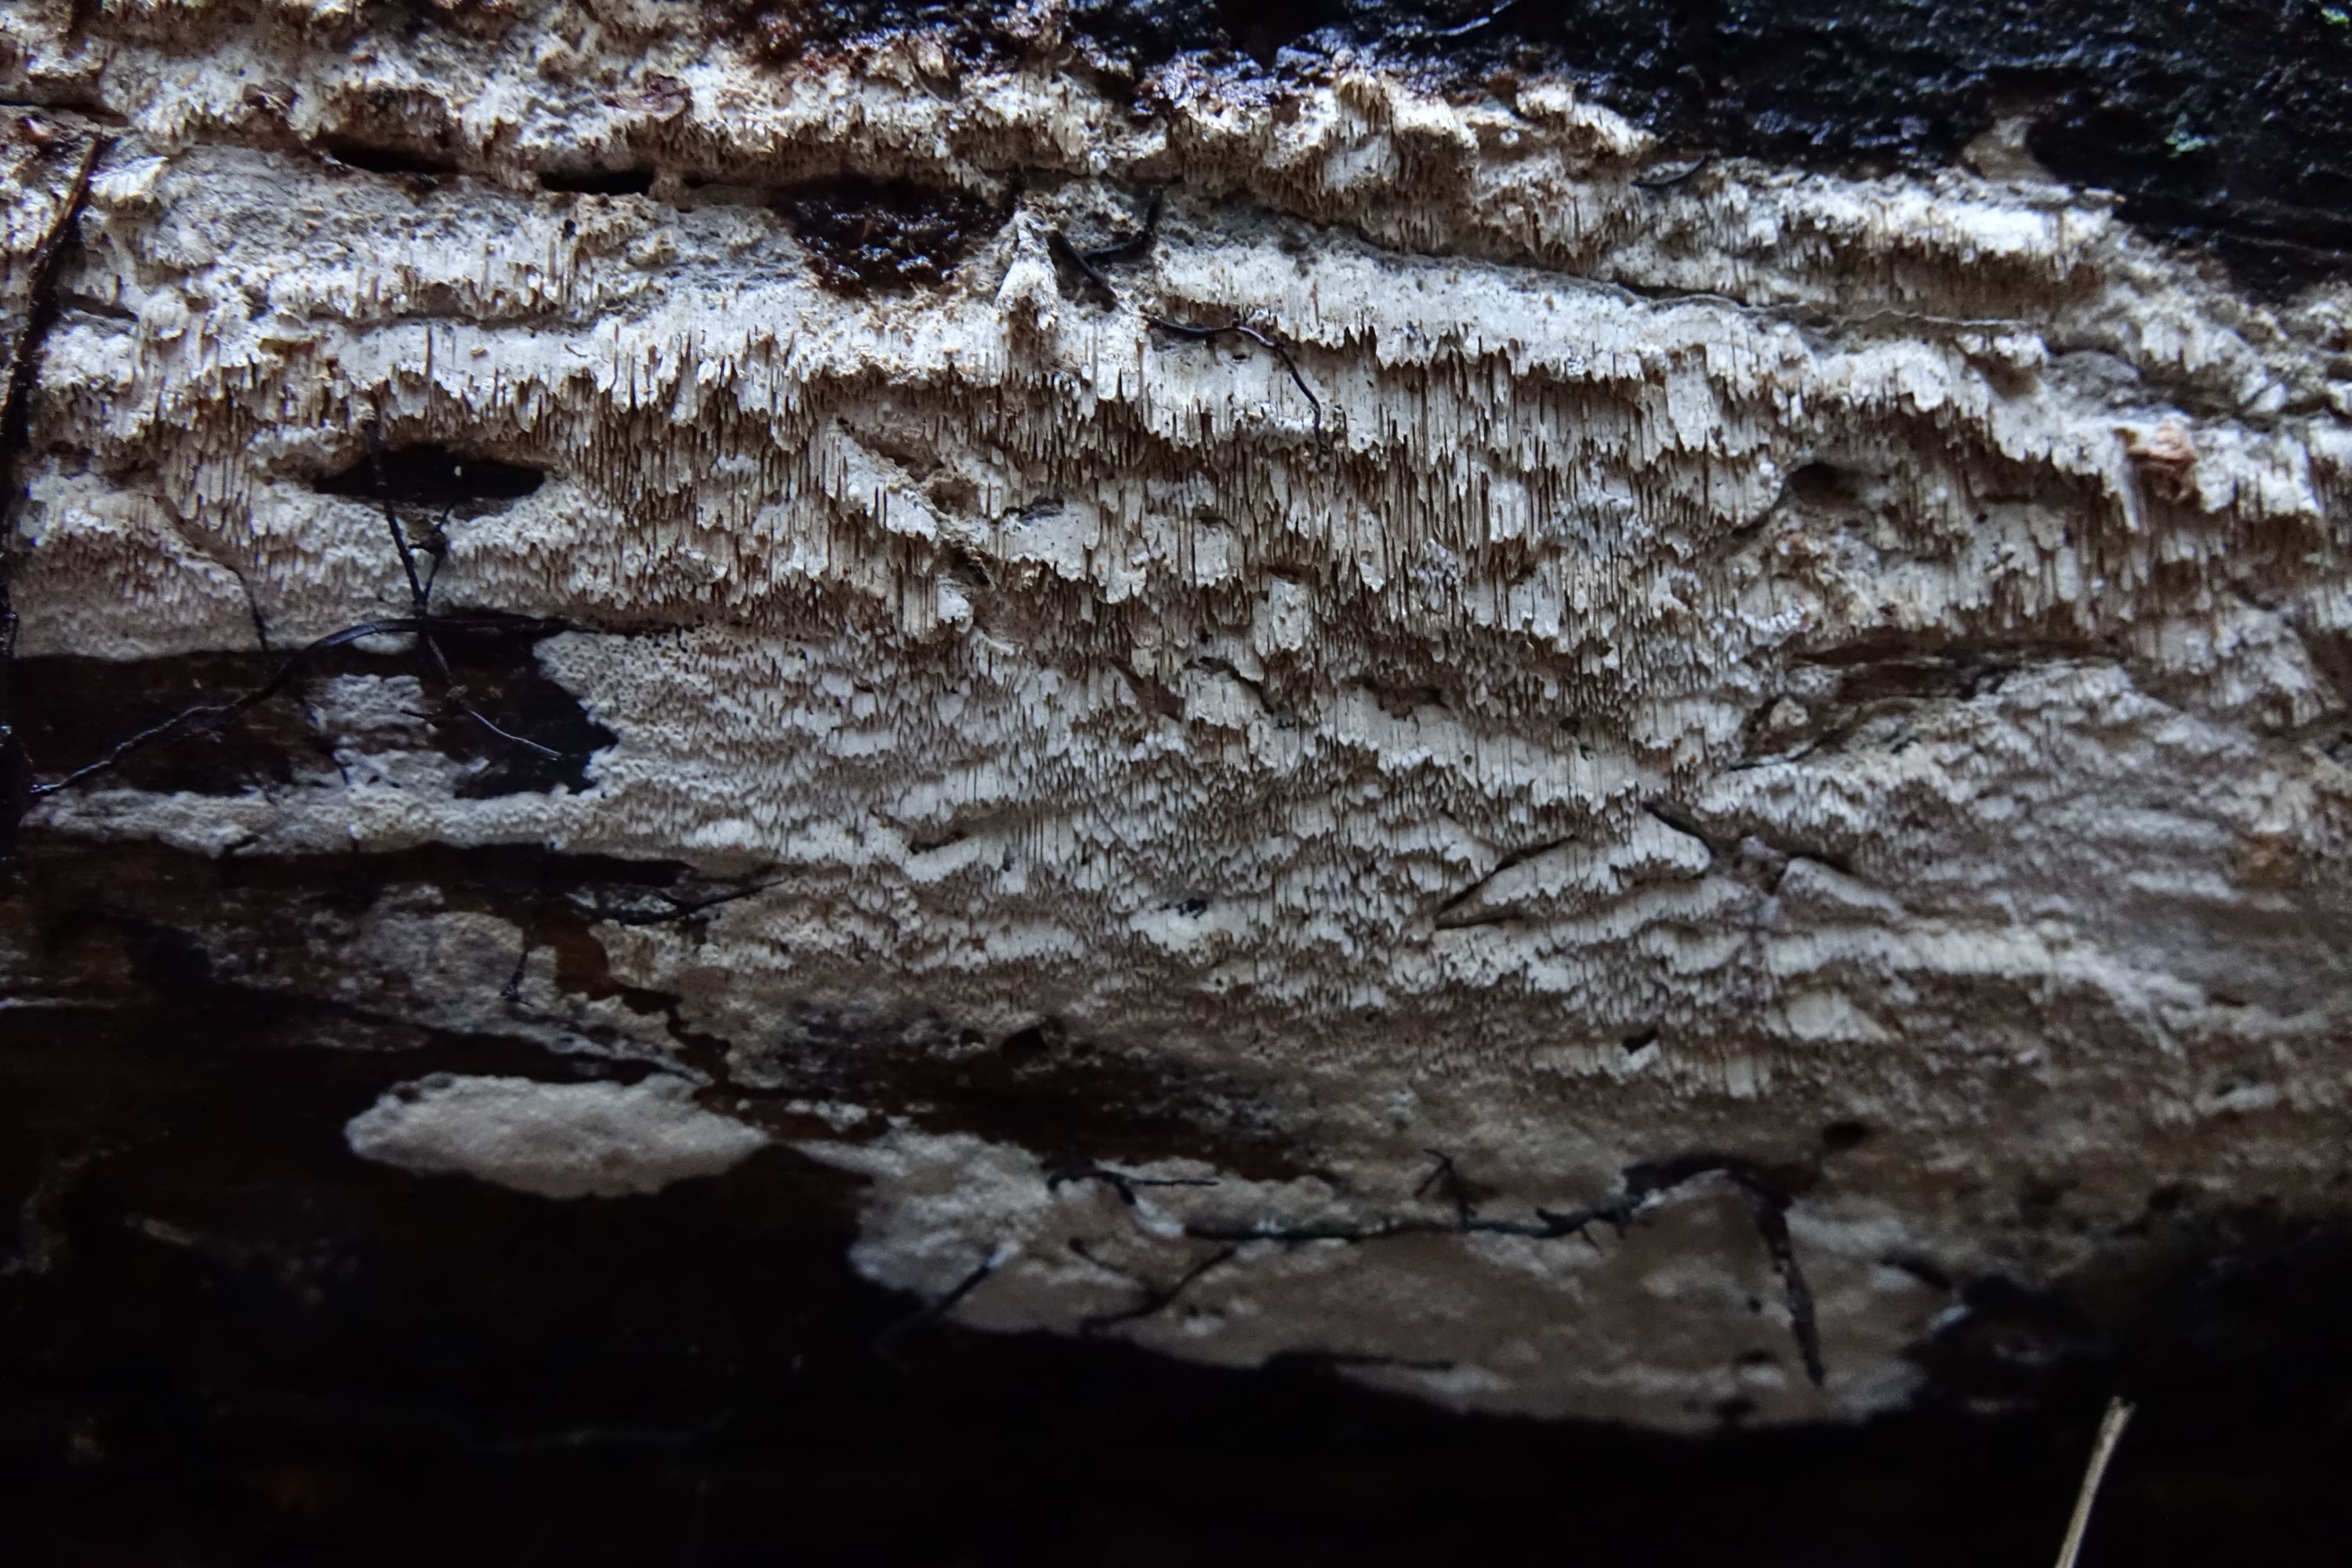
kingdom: Fungi
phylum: Basidiomycota
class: Agaricomycetes
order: Polyporales
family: Fomitopsidaceae
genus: Antrodia
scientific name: Antrodia sinuosa
